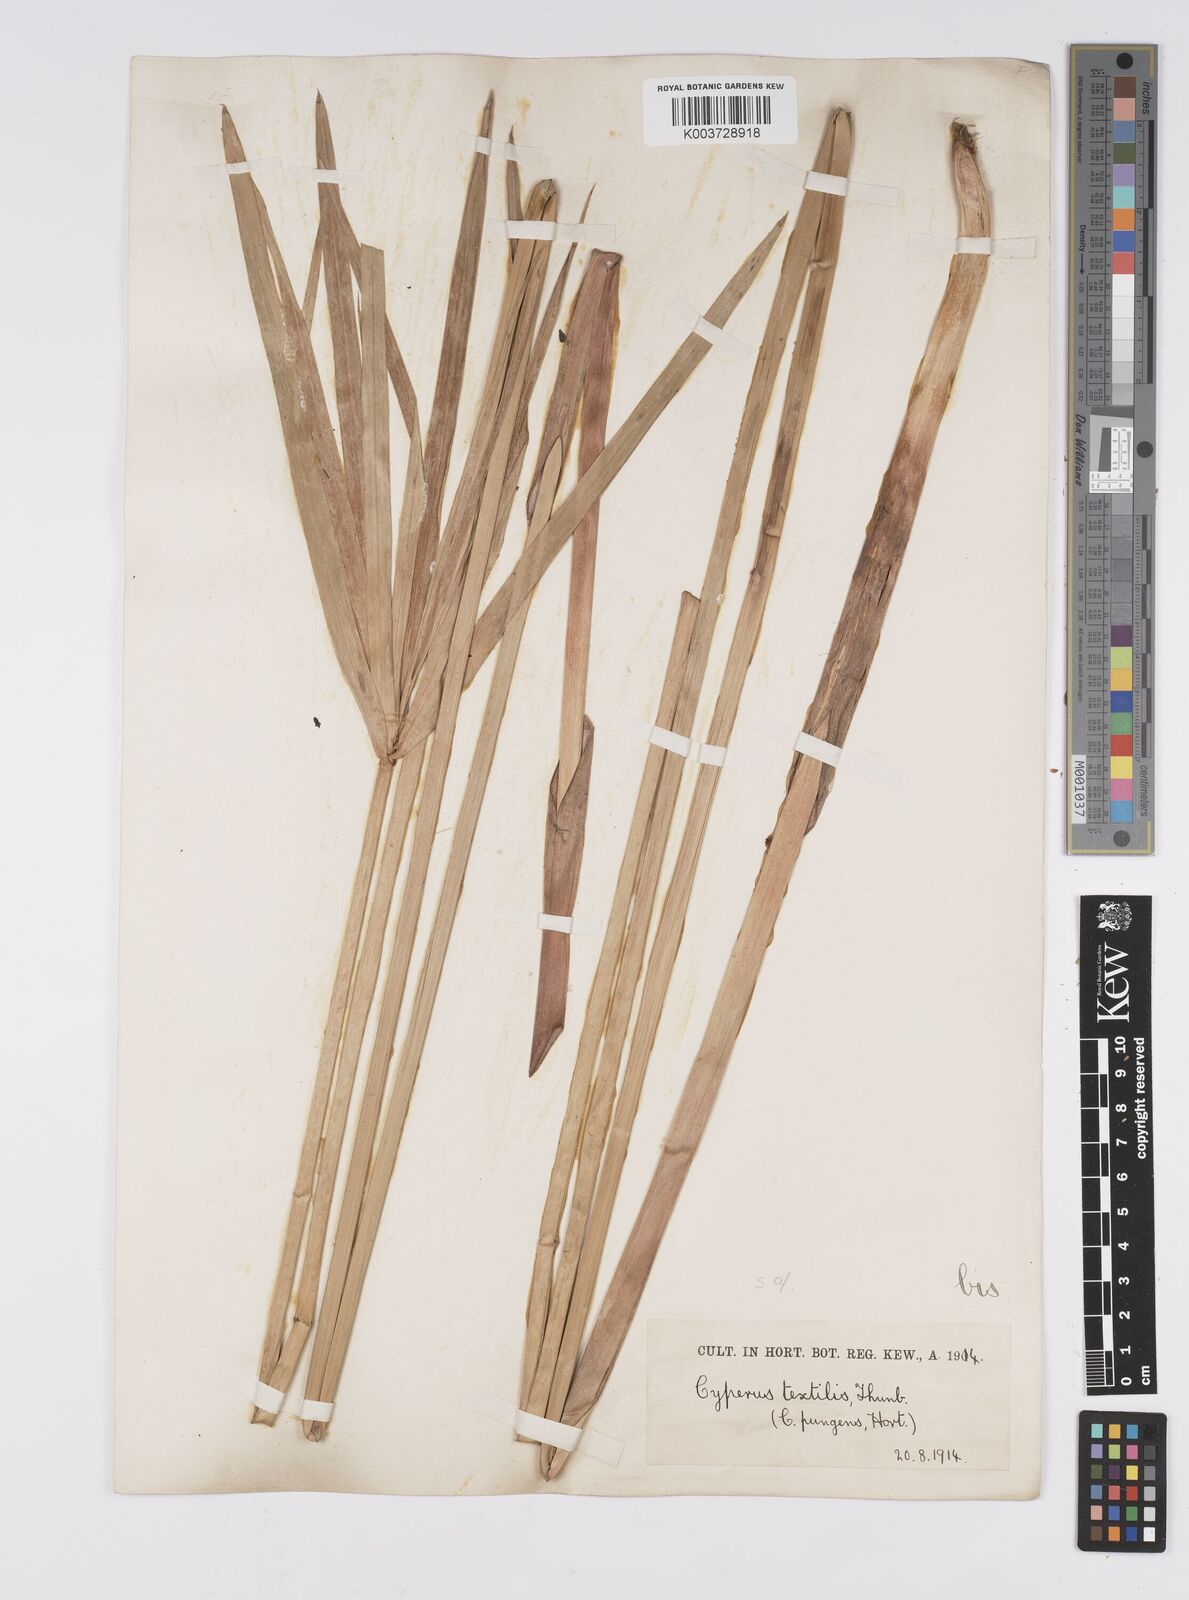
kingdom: Plantae
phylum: Tracheophyta
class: Liliopsida
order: Poales
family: Cyperaceae
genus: Cyperus
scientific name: Cyperus alternifolius
